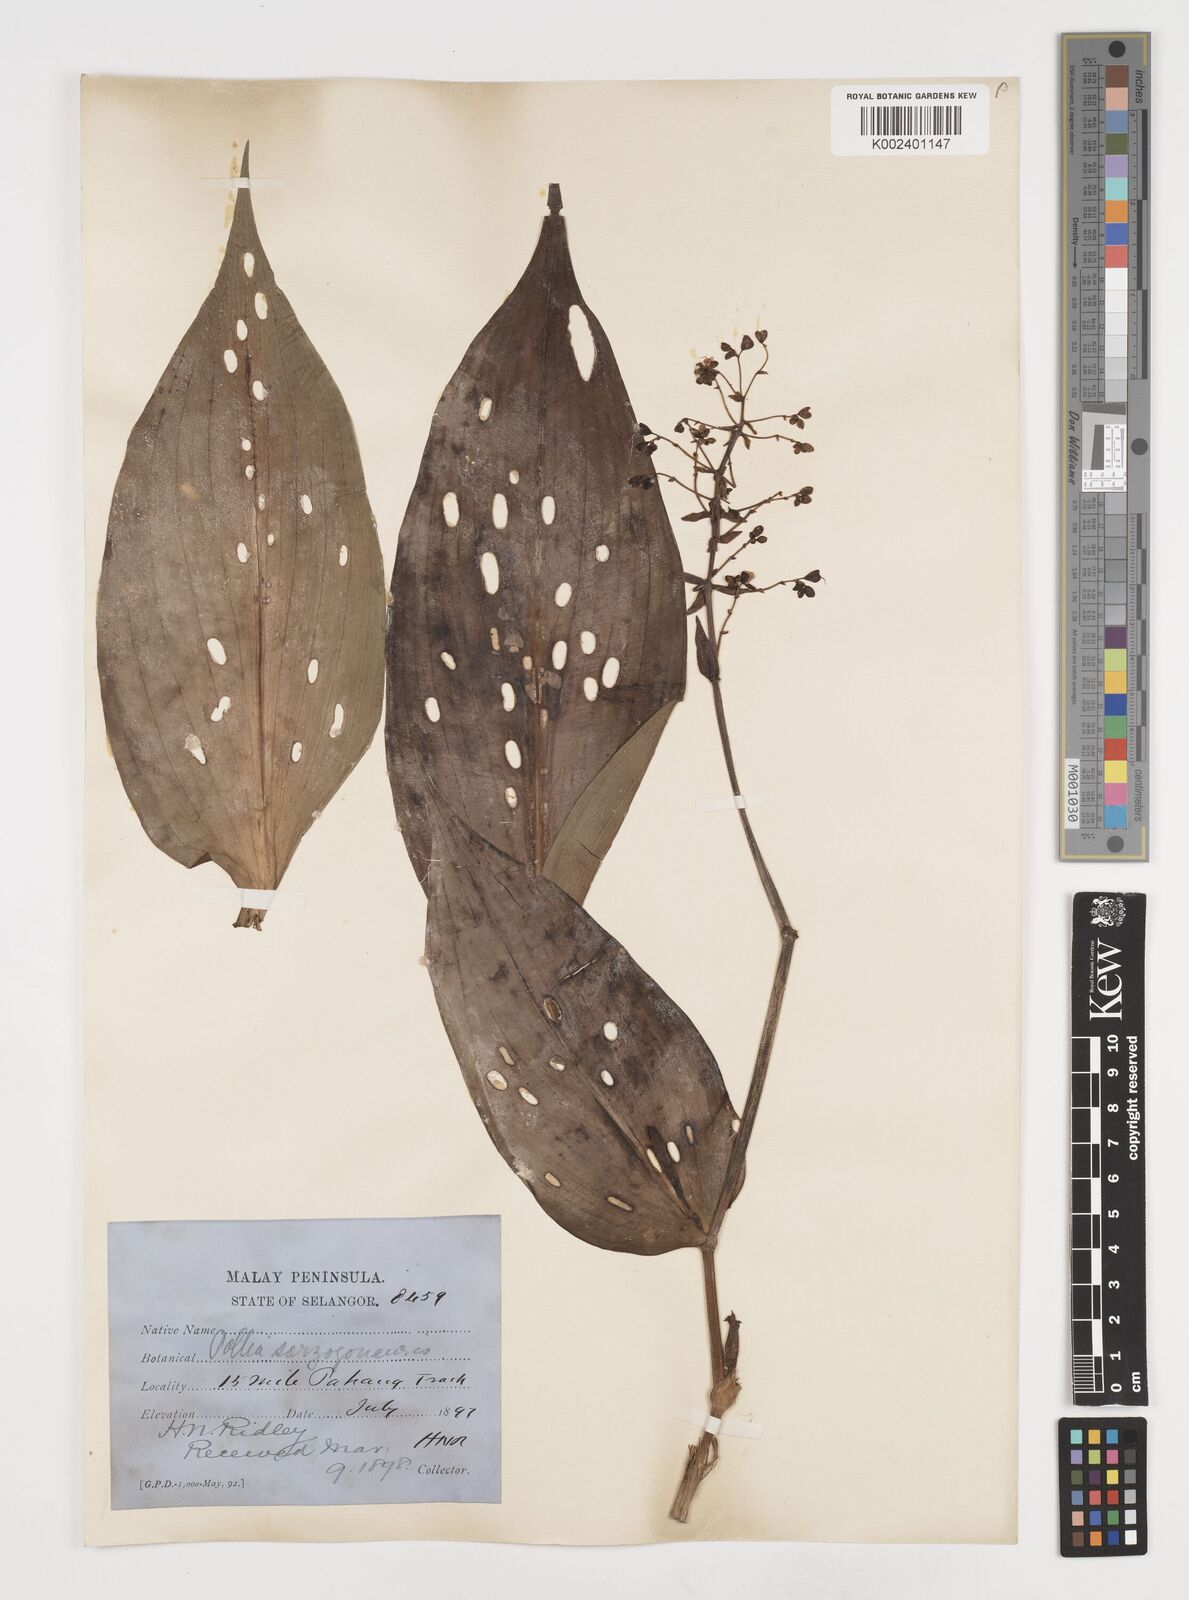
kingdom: Plantae
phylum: Tracheophyta
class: Liliopsida
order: Commelinales
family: Commelinaceae
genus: Pollia
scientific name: Pollia secundiflora
